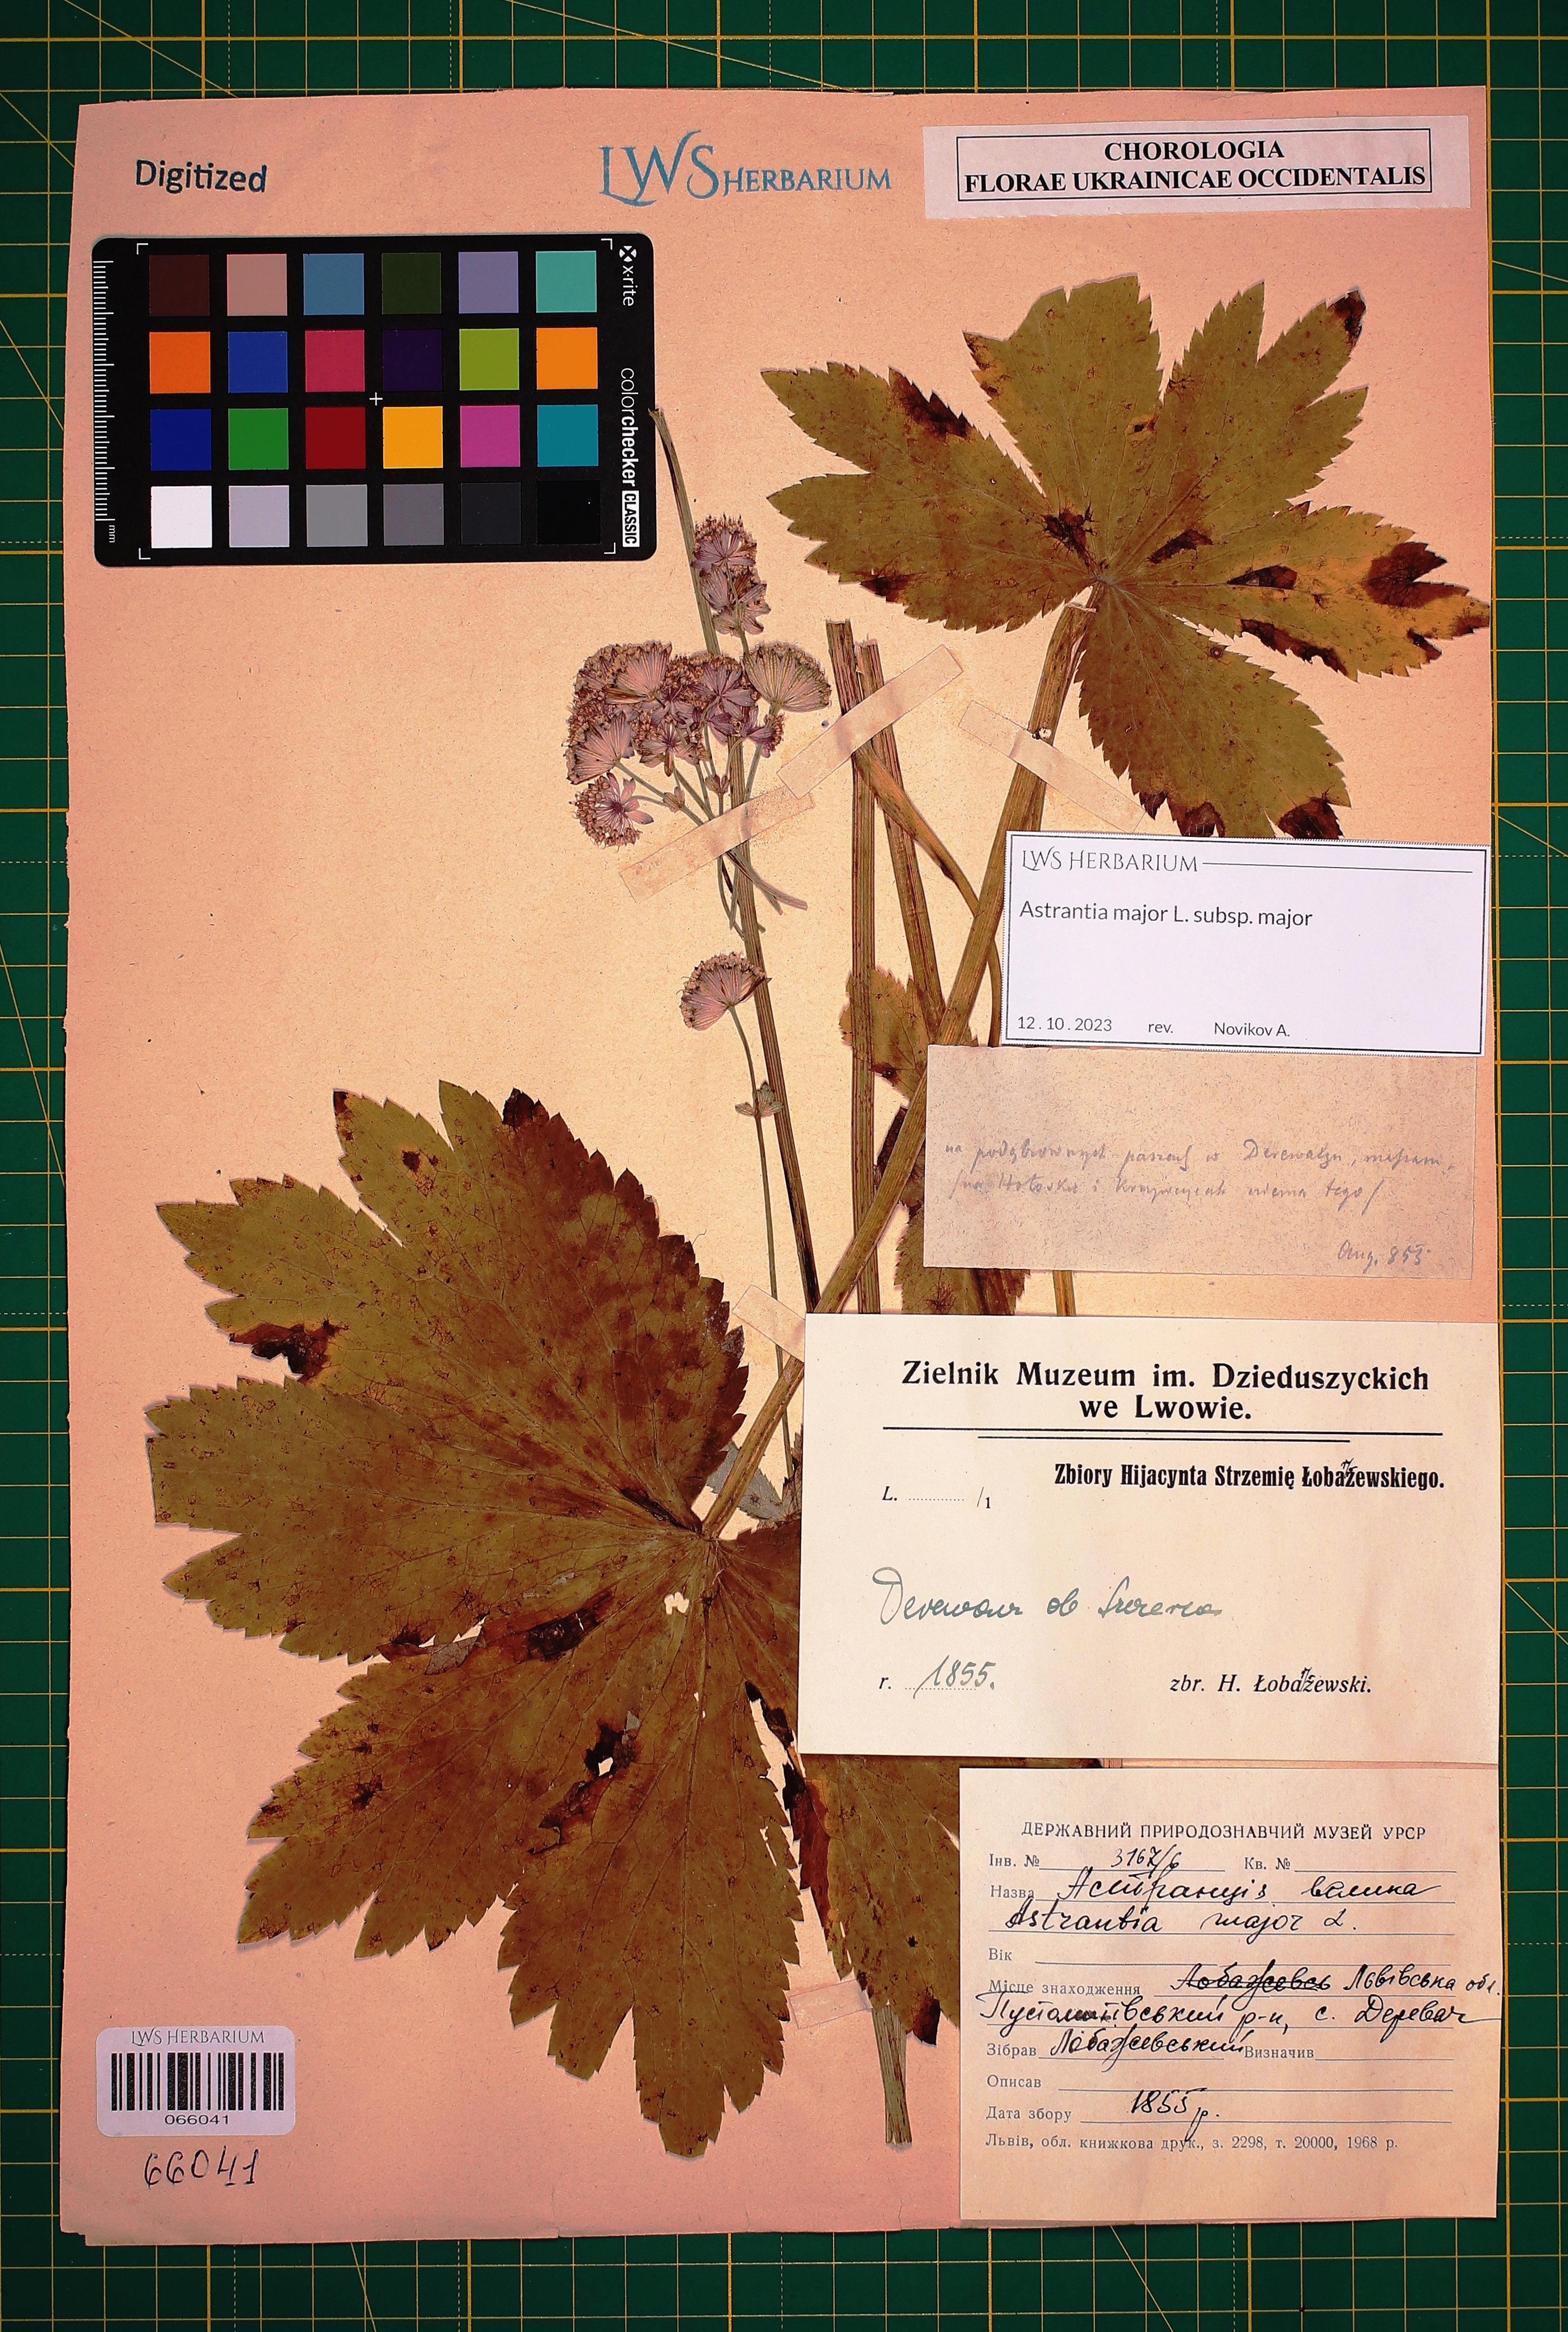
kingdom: Plantae
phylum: Tracheophyta
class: Magnoliopsida
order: Apiales
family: Apiaceae
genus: Astrantia
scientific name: Astrantia major
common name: Greater masterwort
